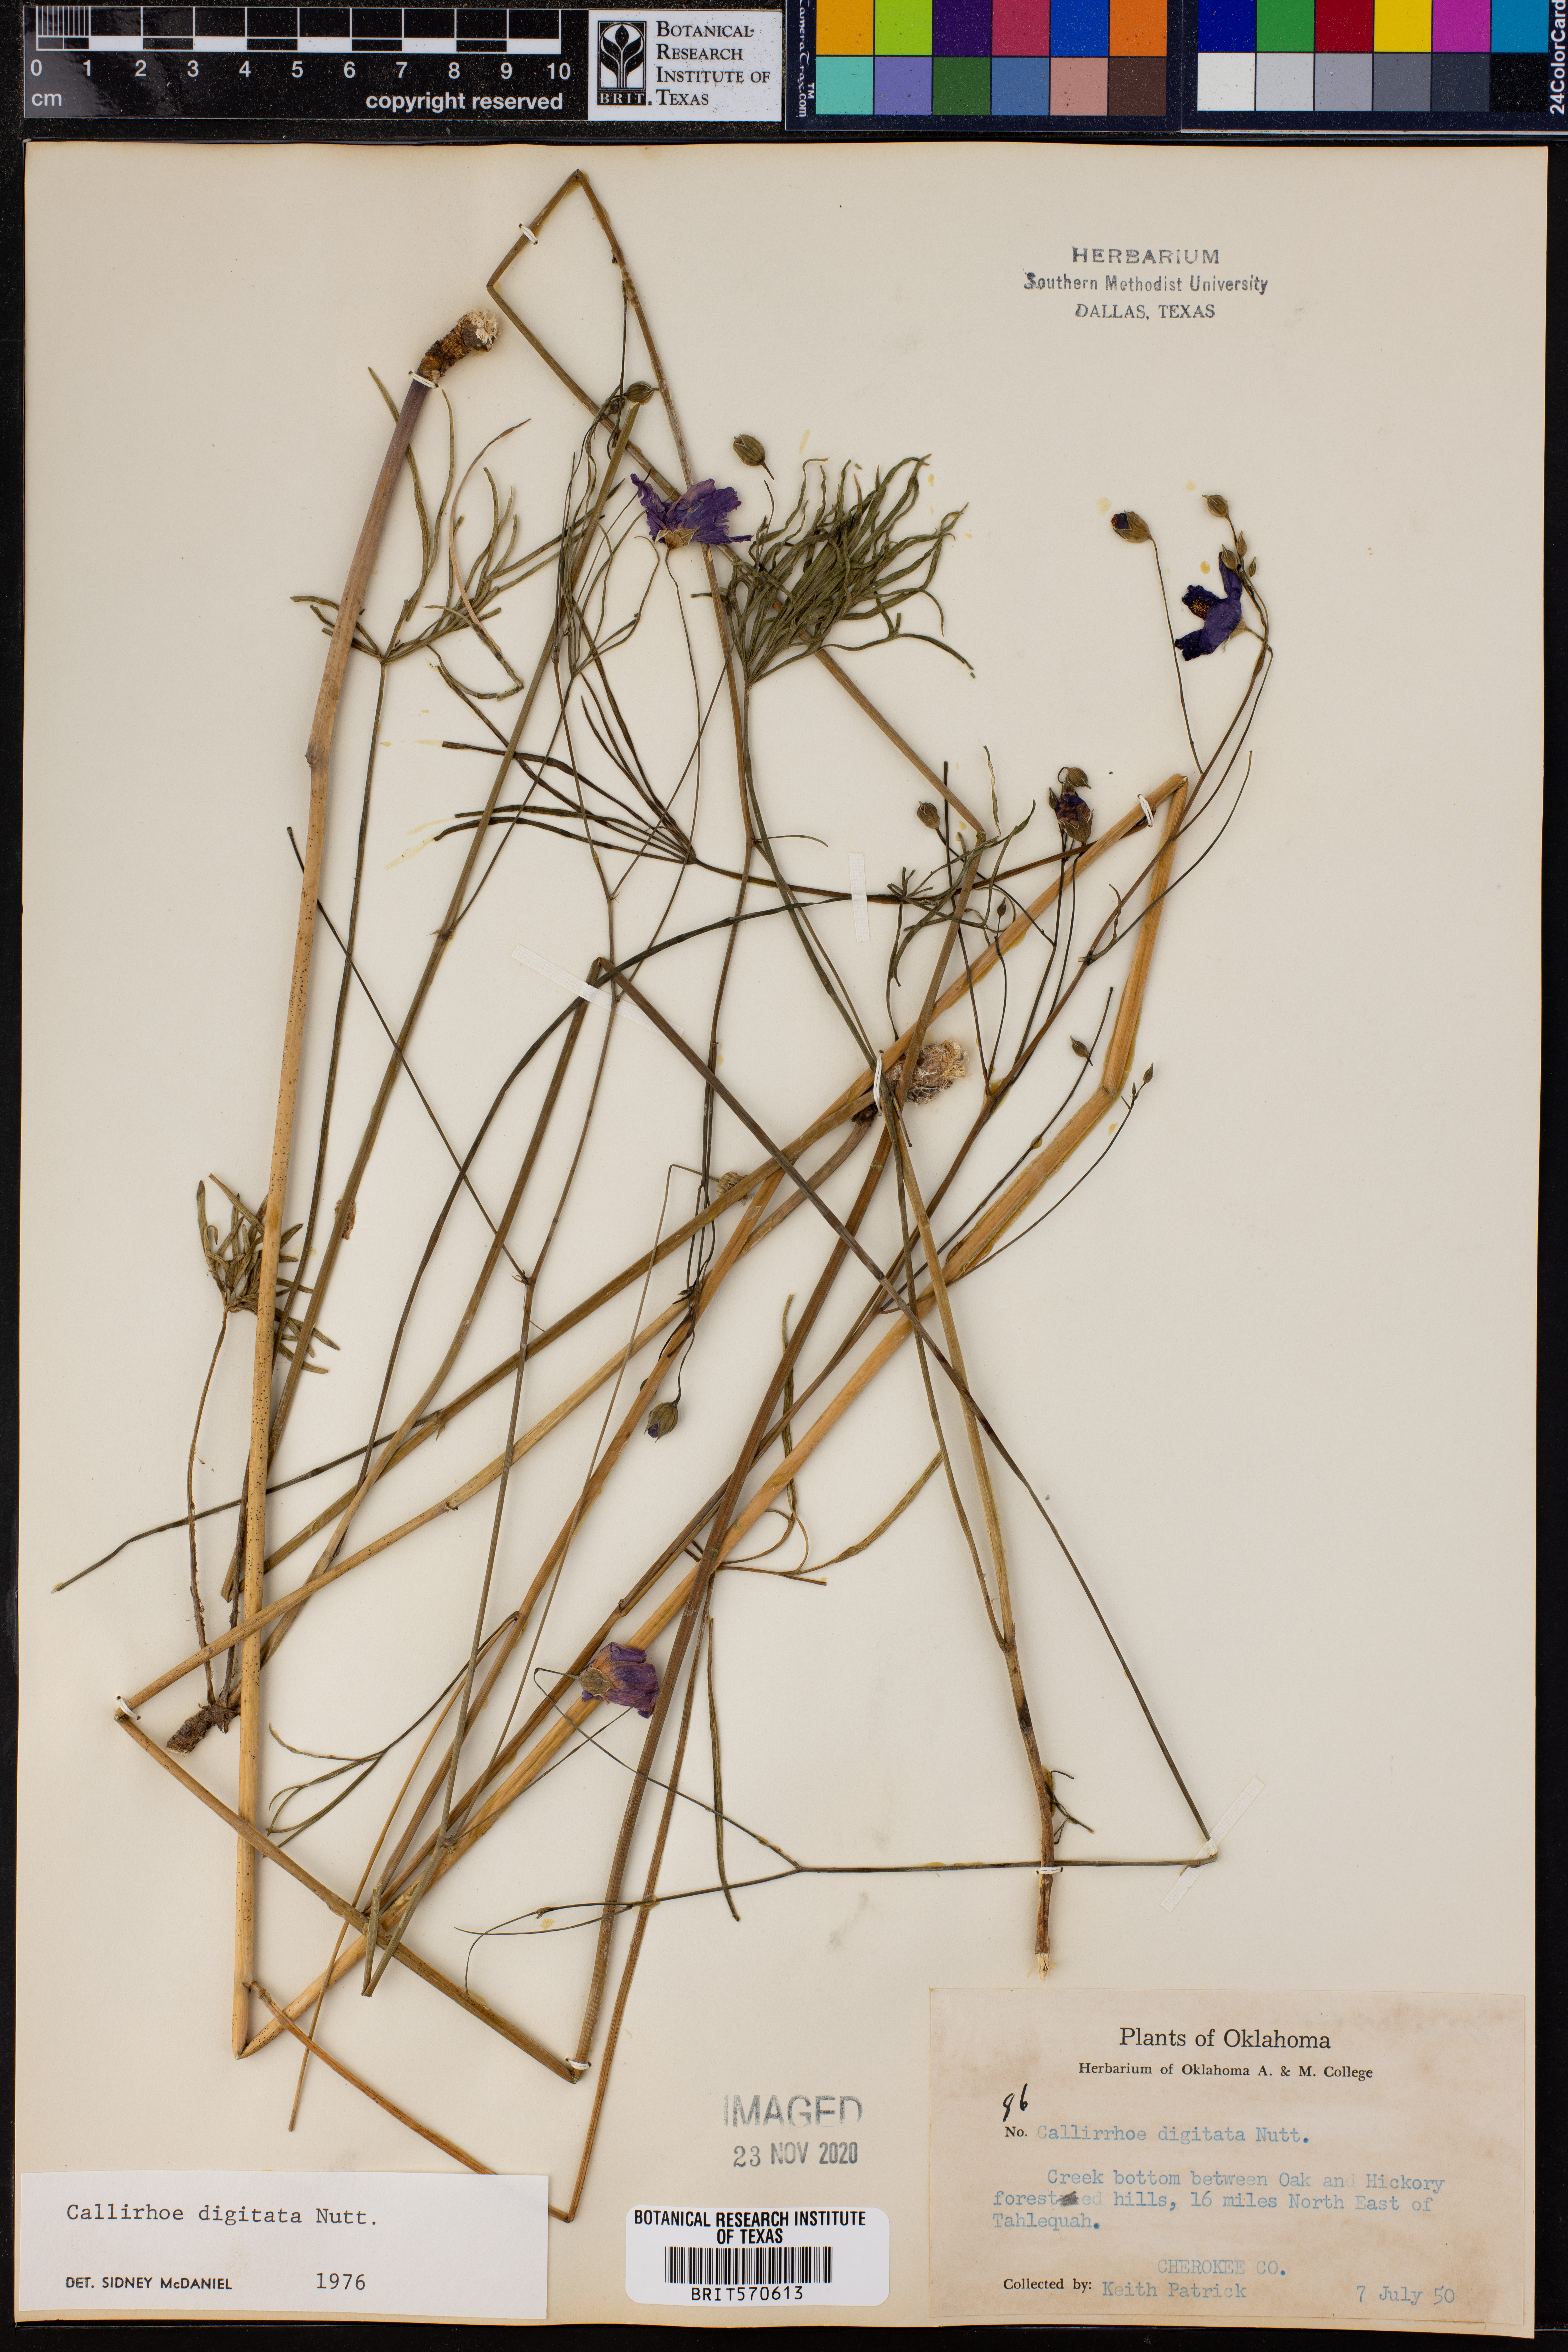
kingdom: Plantae
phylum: Tracheophyta
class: Magnoliopsida
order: Malvales
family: Malvaceae
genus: Callirhoe
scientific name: Callirhoe digitata
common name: Finger poppy-mallow
